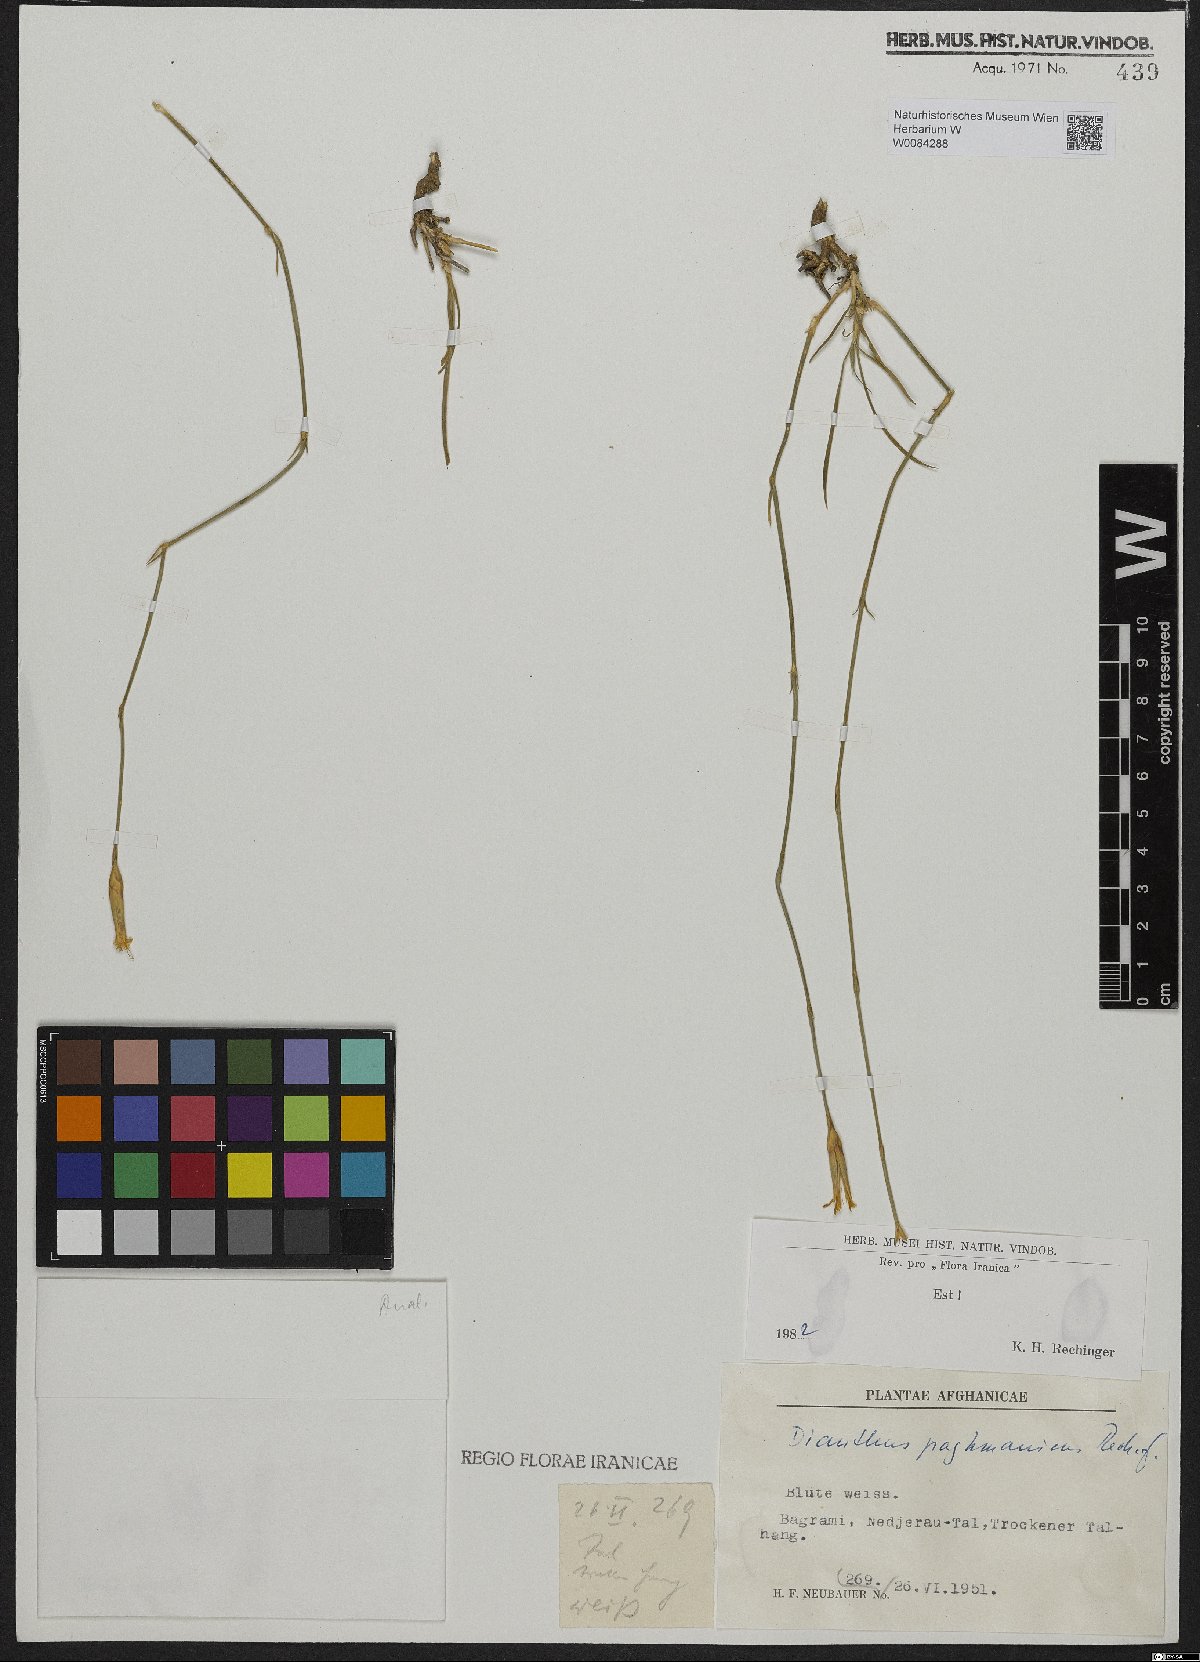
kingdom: Plantae
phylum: Tracheophyta
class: Magnoliopsida
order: Caryophyllales
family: Caryophyllaceae
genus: Dianthus
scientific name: Dianthus paghmanicus
